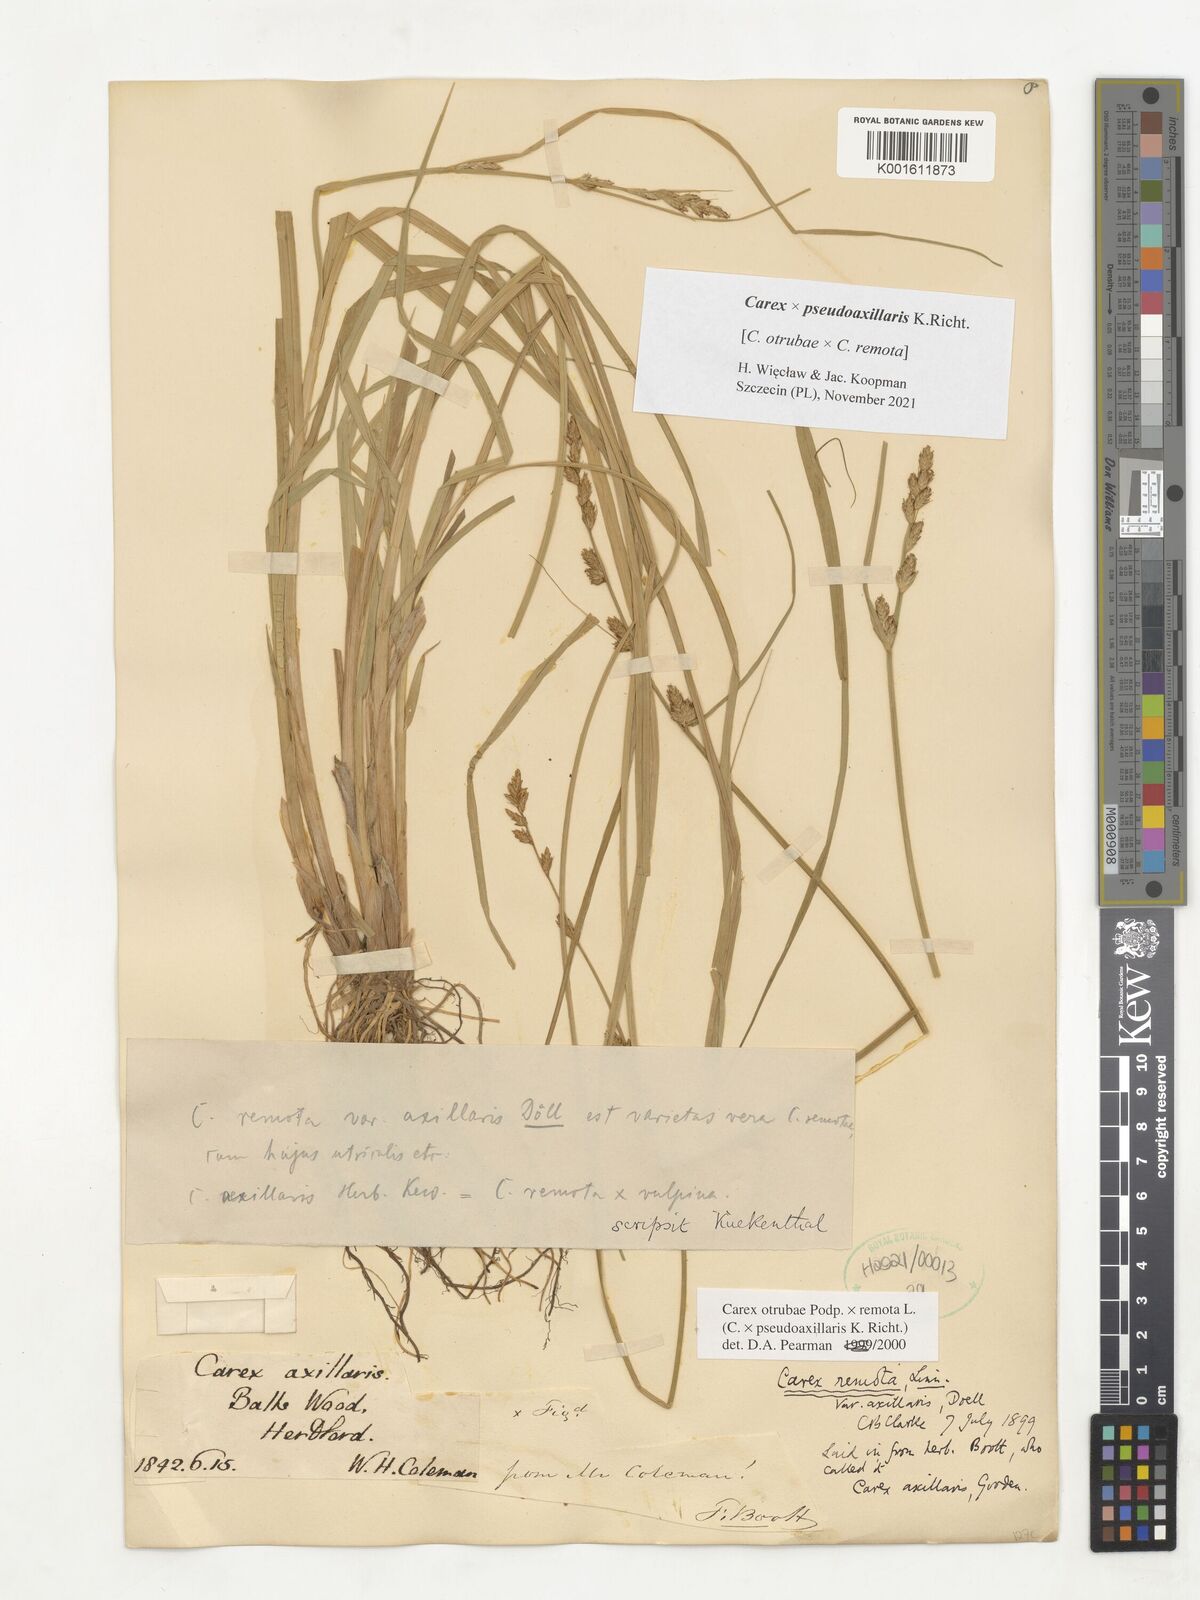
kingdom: Plantae
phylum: Tracheophyta
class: Liliopsida
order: Poales
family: Cyperaceae
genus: Carex
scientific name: Carex pseudoaxillaris
